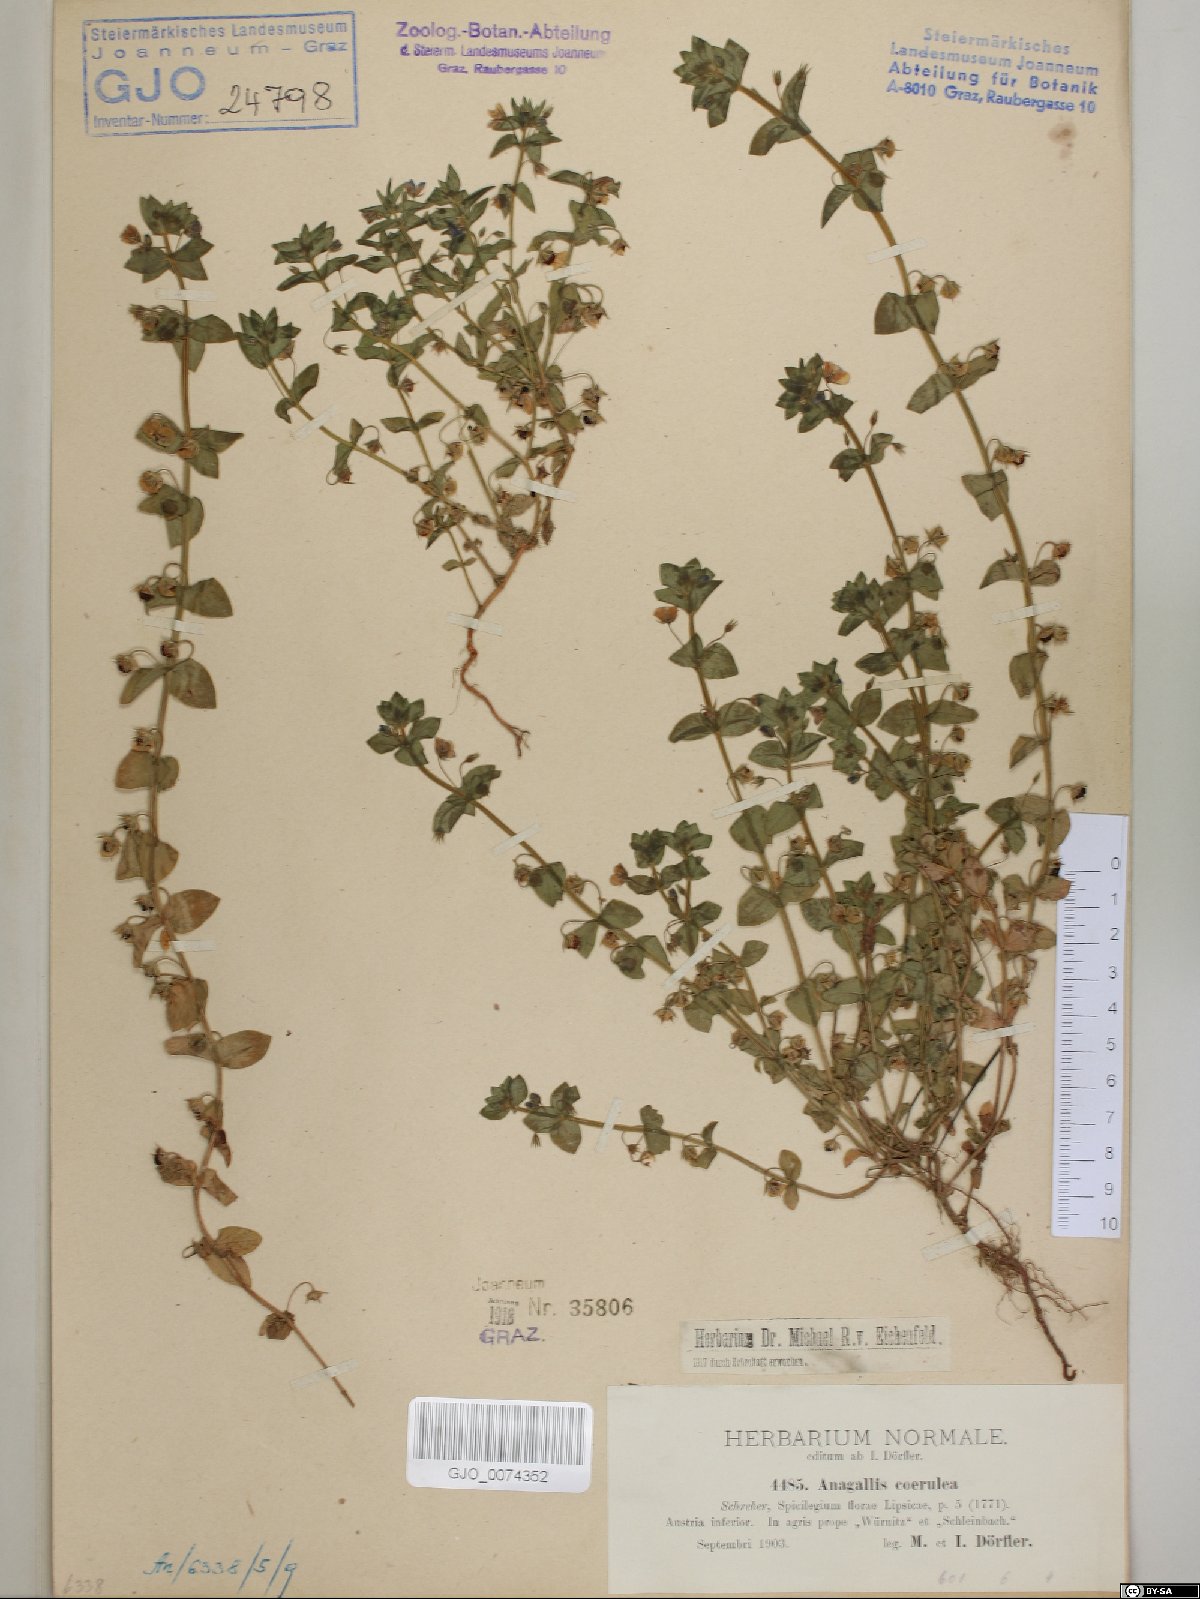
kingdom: Plantae
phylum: Tracheophyta
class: Magnoliopsida
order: Ericales
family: Primulaceae
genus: Lysimachia
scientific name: Lysimachia foemina
